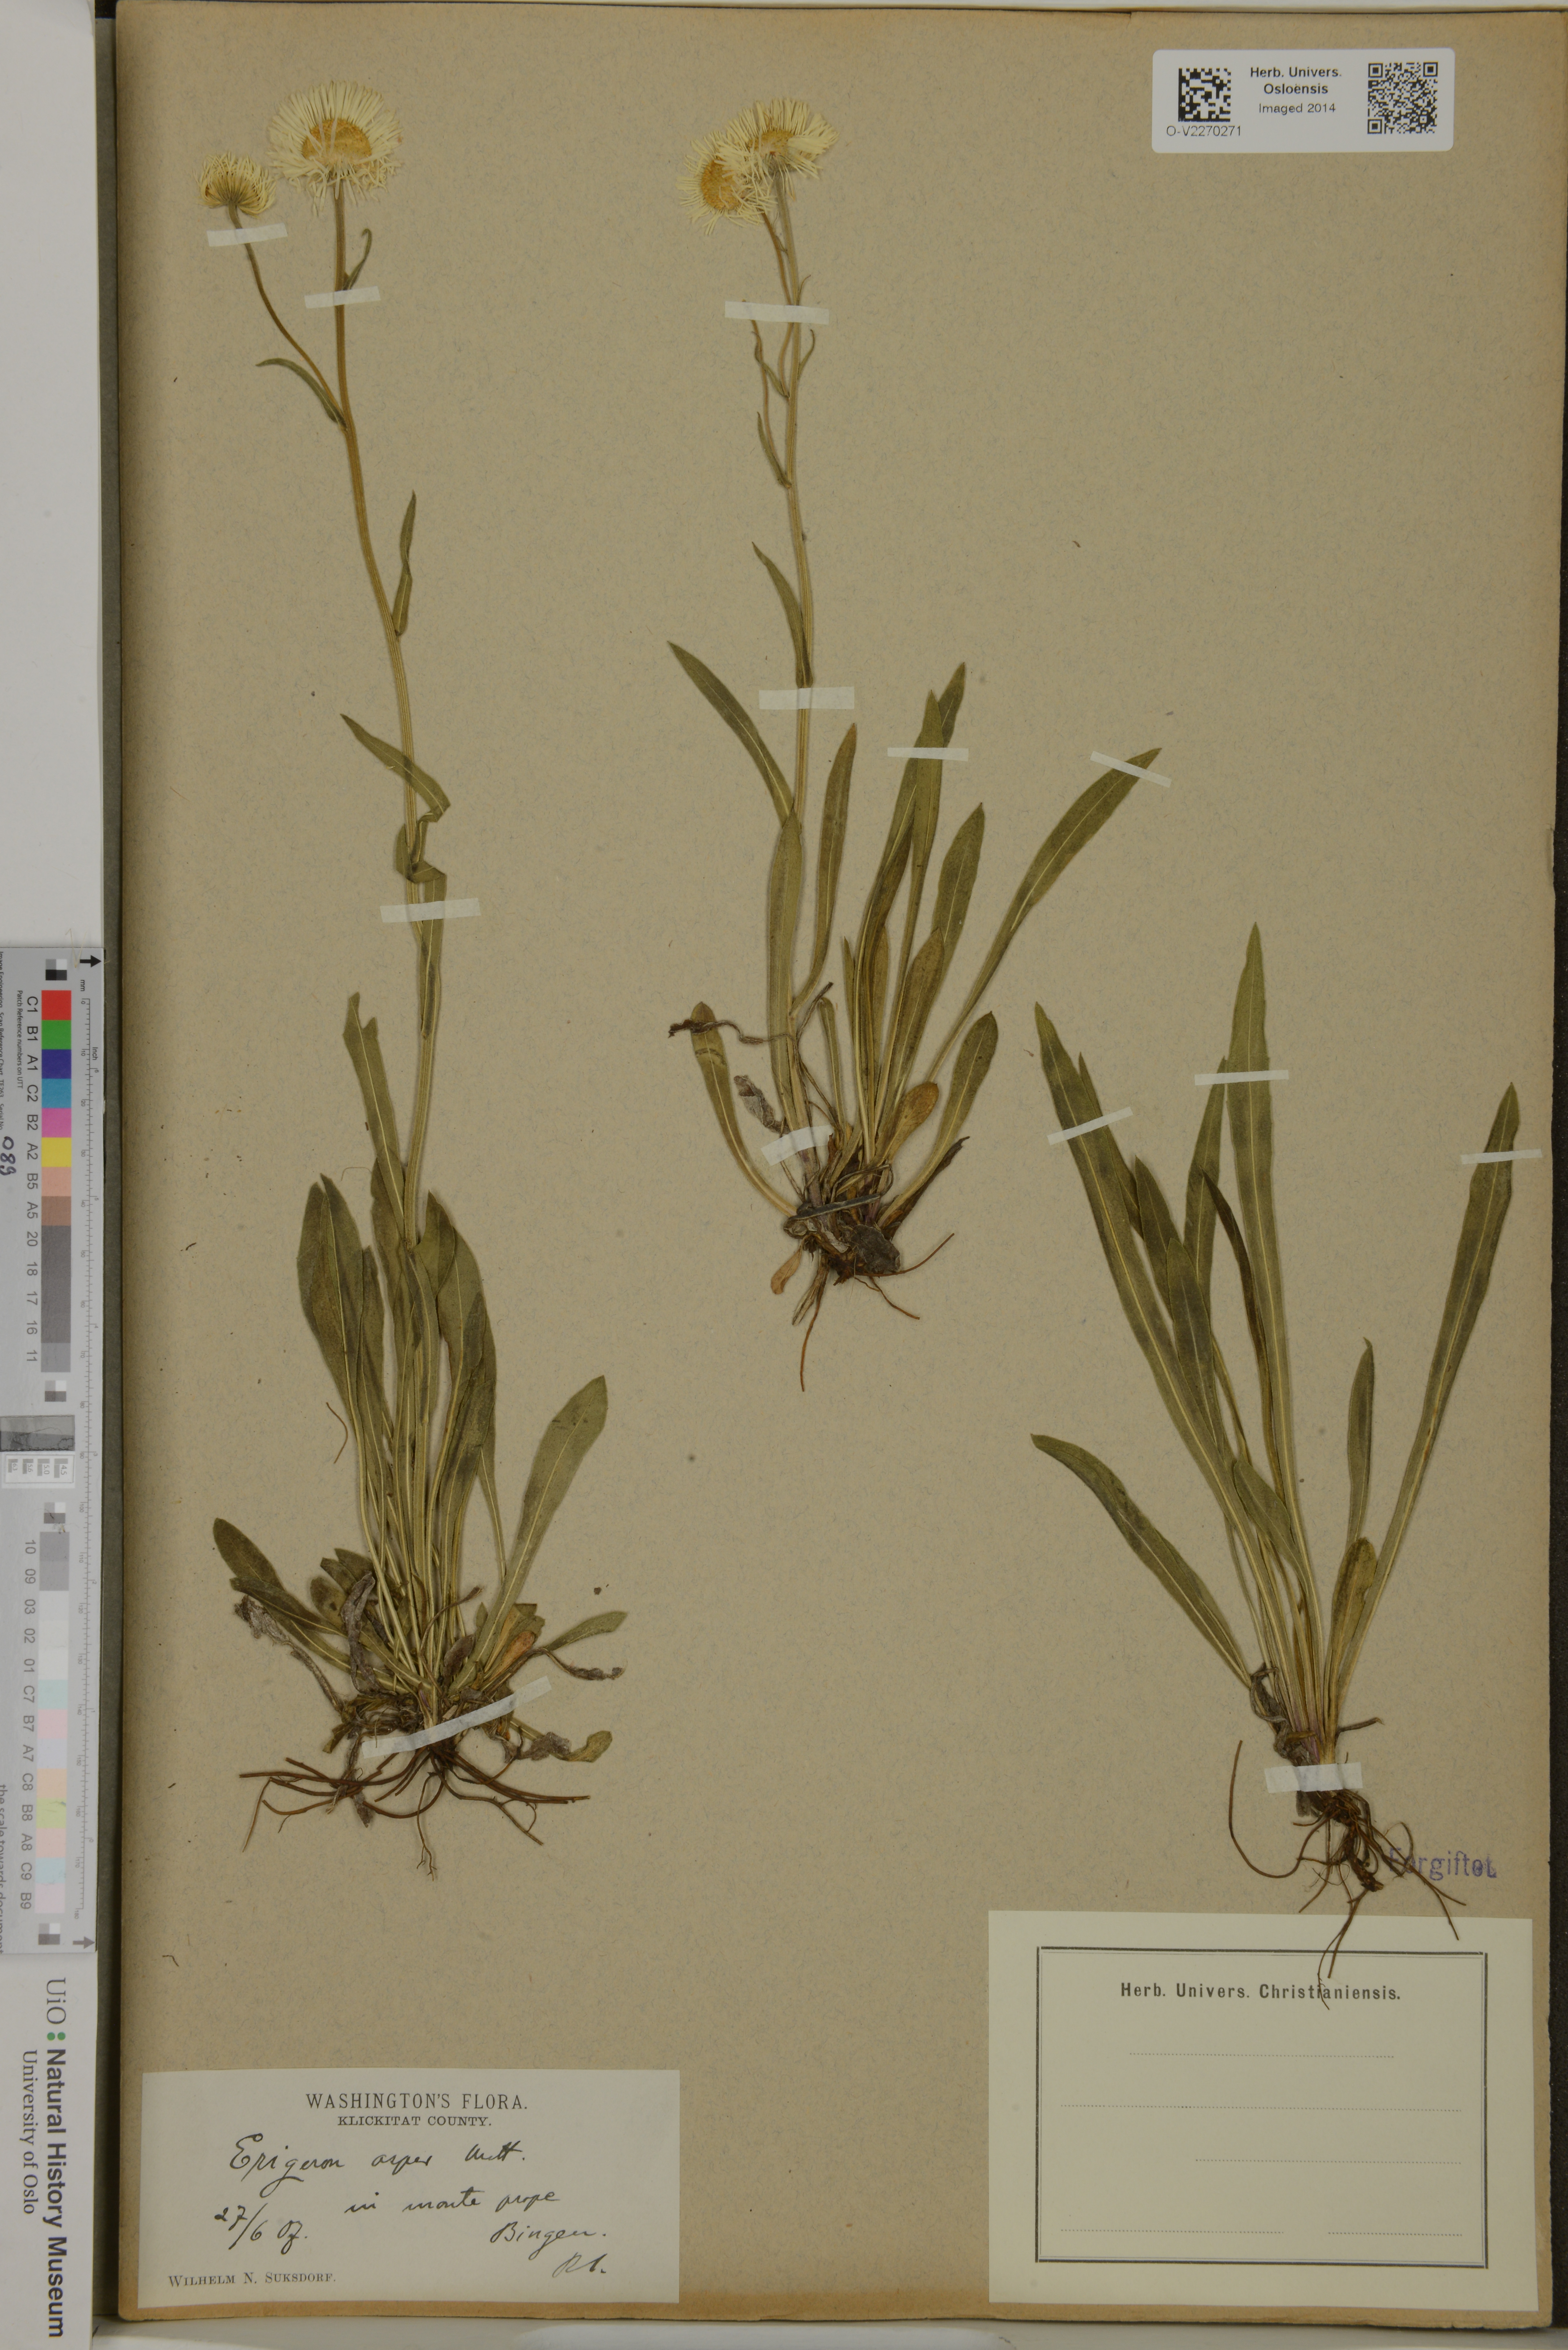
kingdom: Plantae
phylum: Tracheophyta
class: Magnoliopsida
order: Asterales
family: Asteraceae
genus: Erigeron
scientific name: Erigeron glabellus
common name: Smooth fleabane
